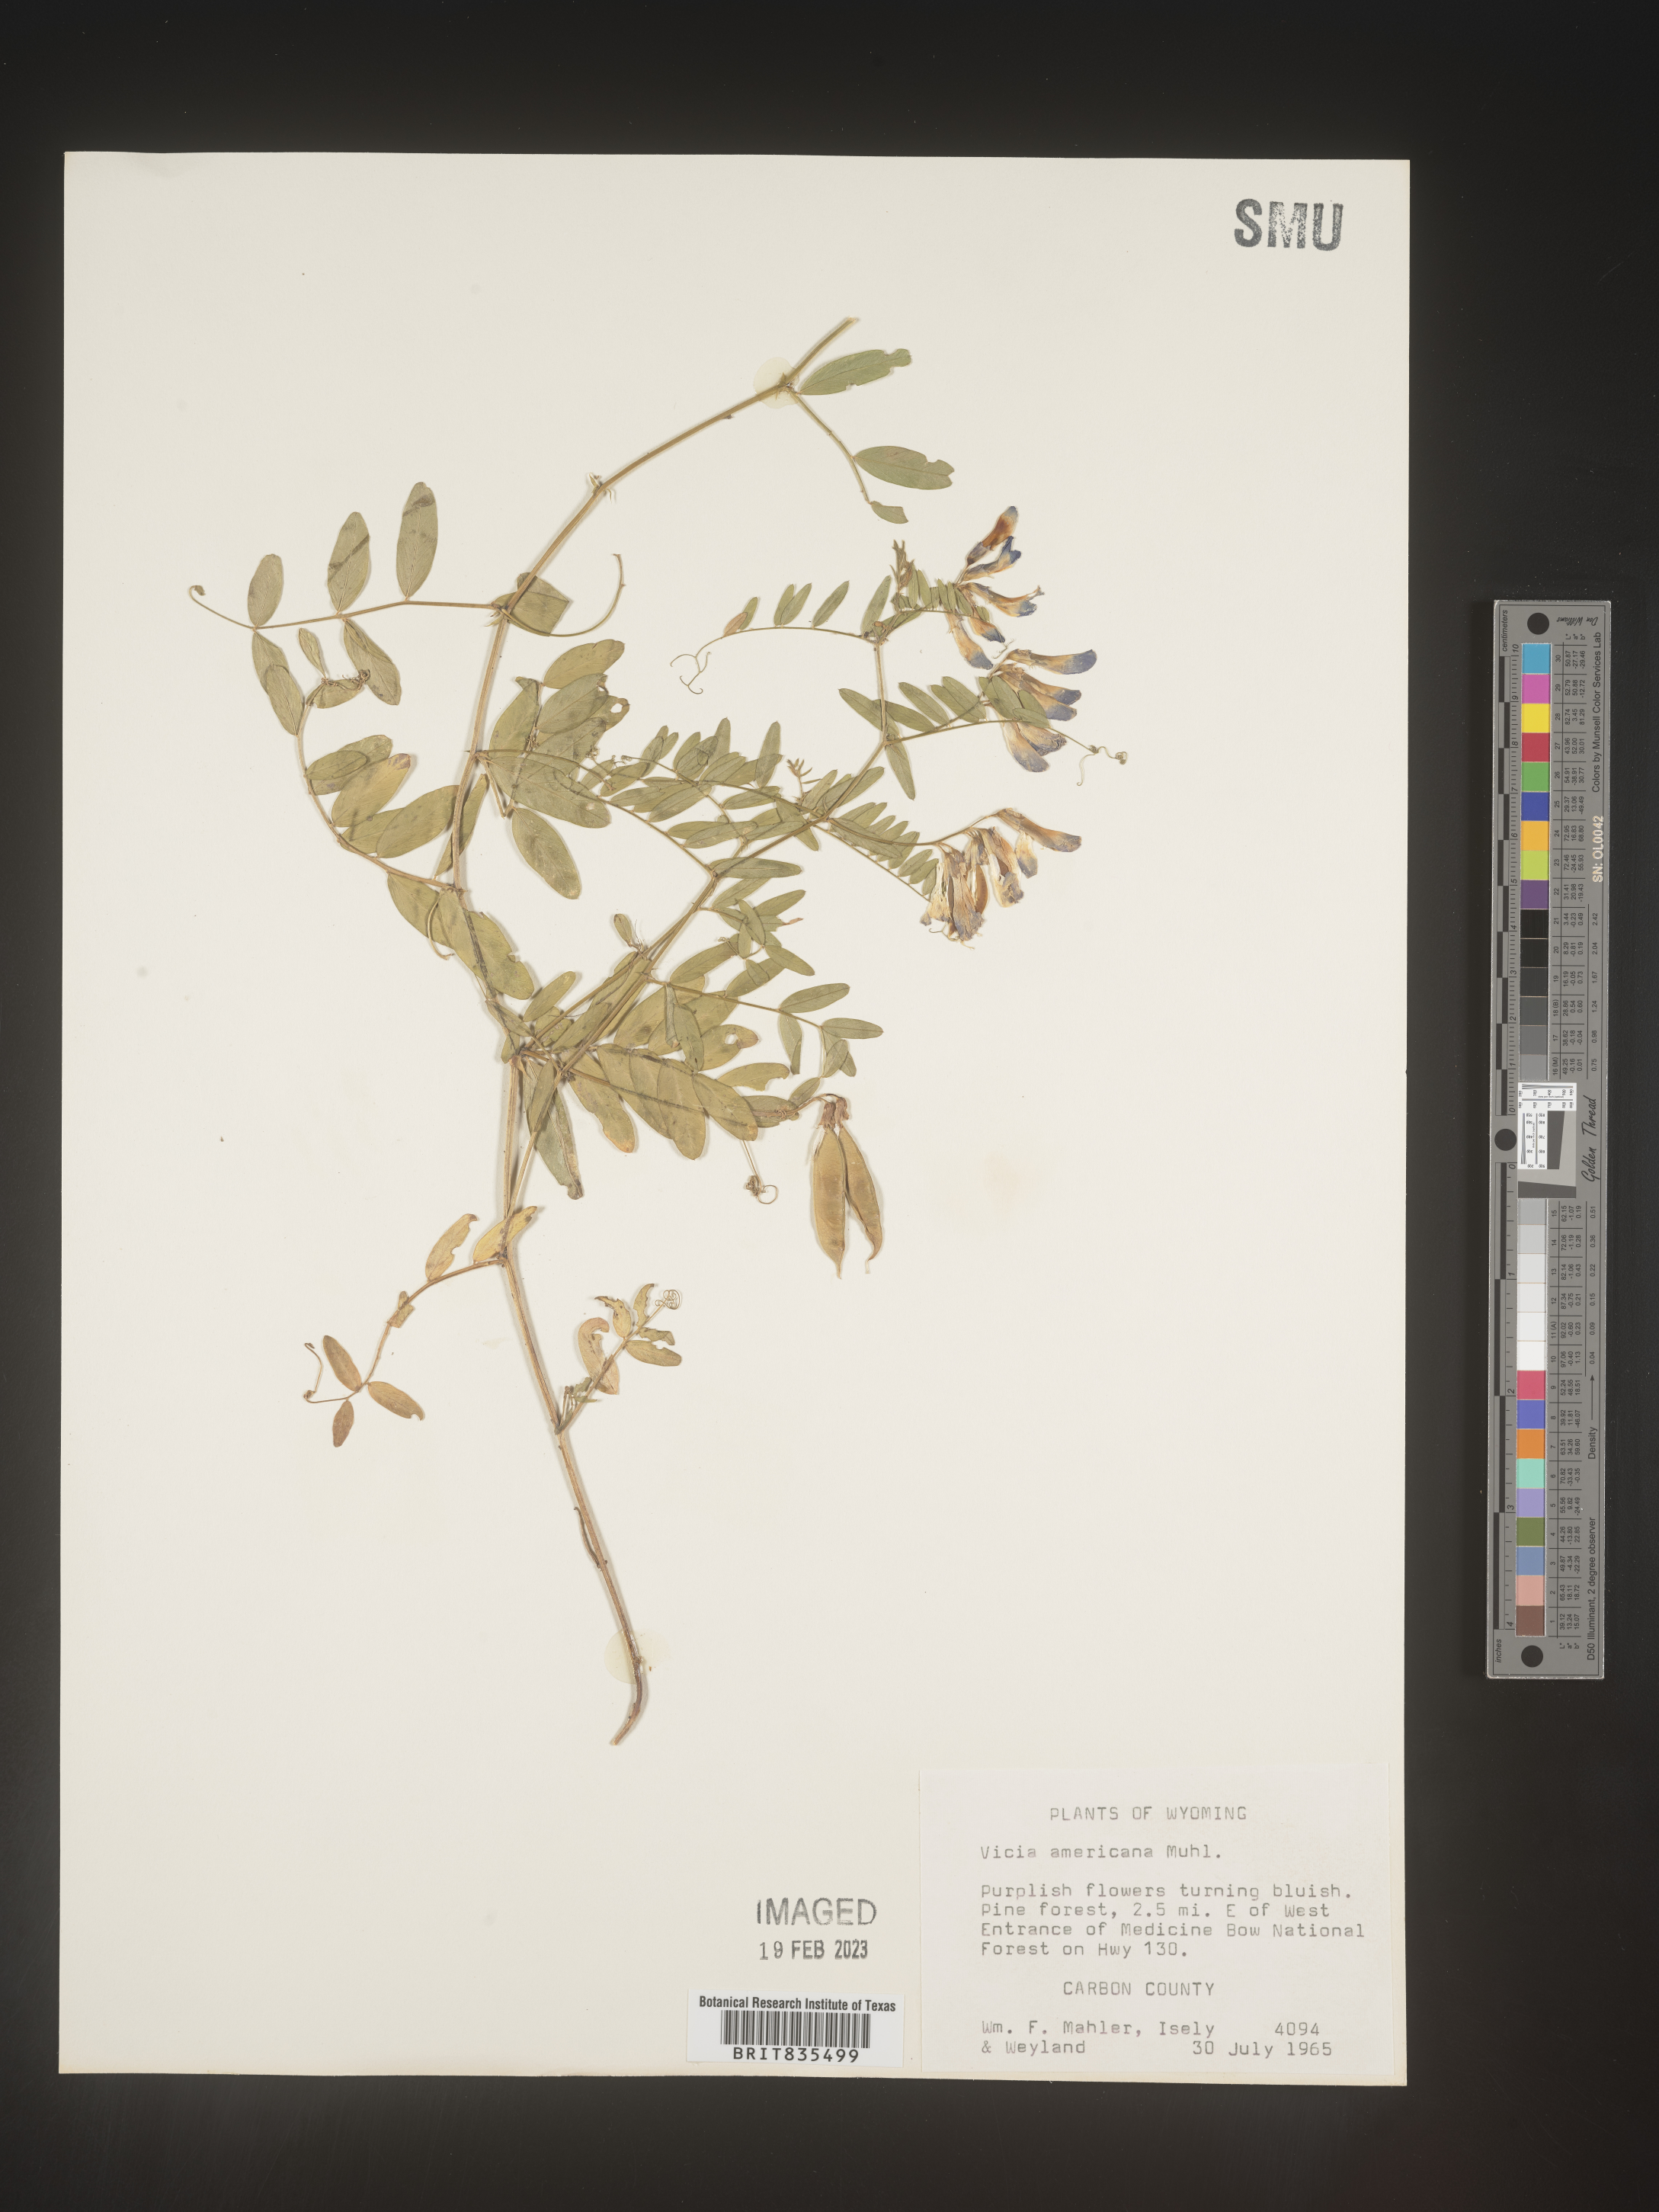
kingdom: Plantae
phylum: Tracheophyta
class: Magnoliopsida
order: Fabales
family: Fabaceae
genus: Vicia
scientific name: Vicia americana
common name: American vetch
